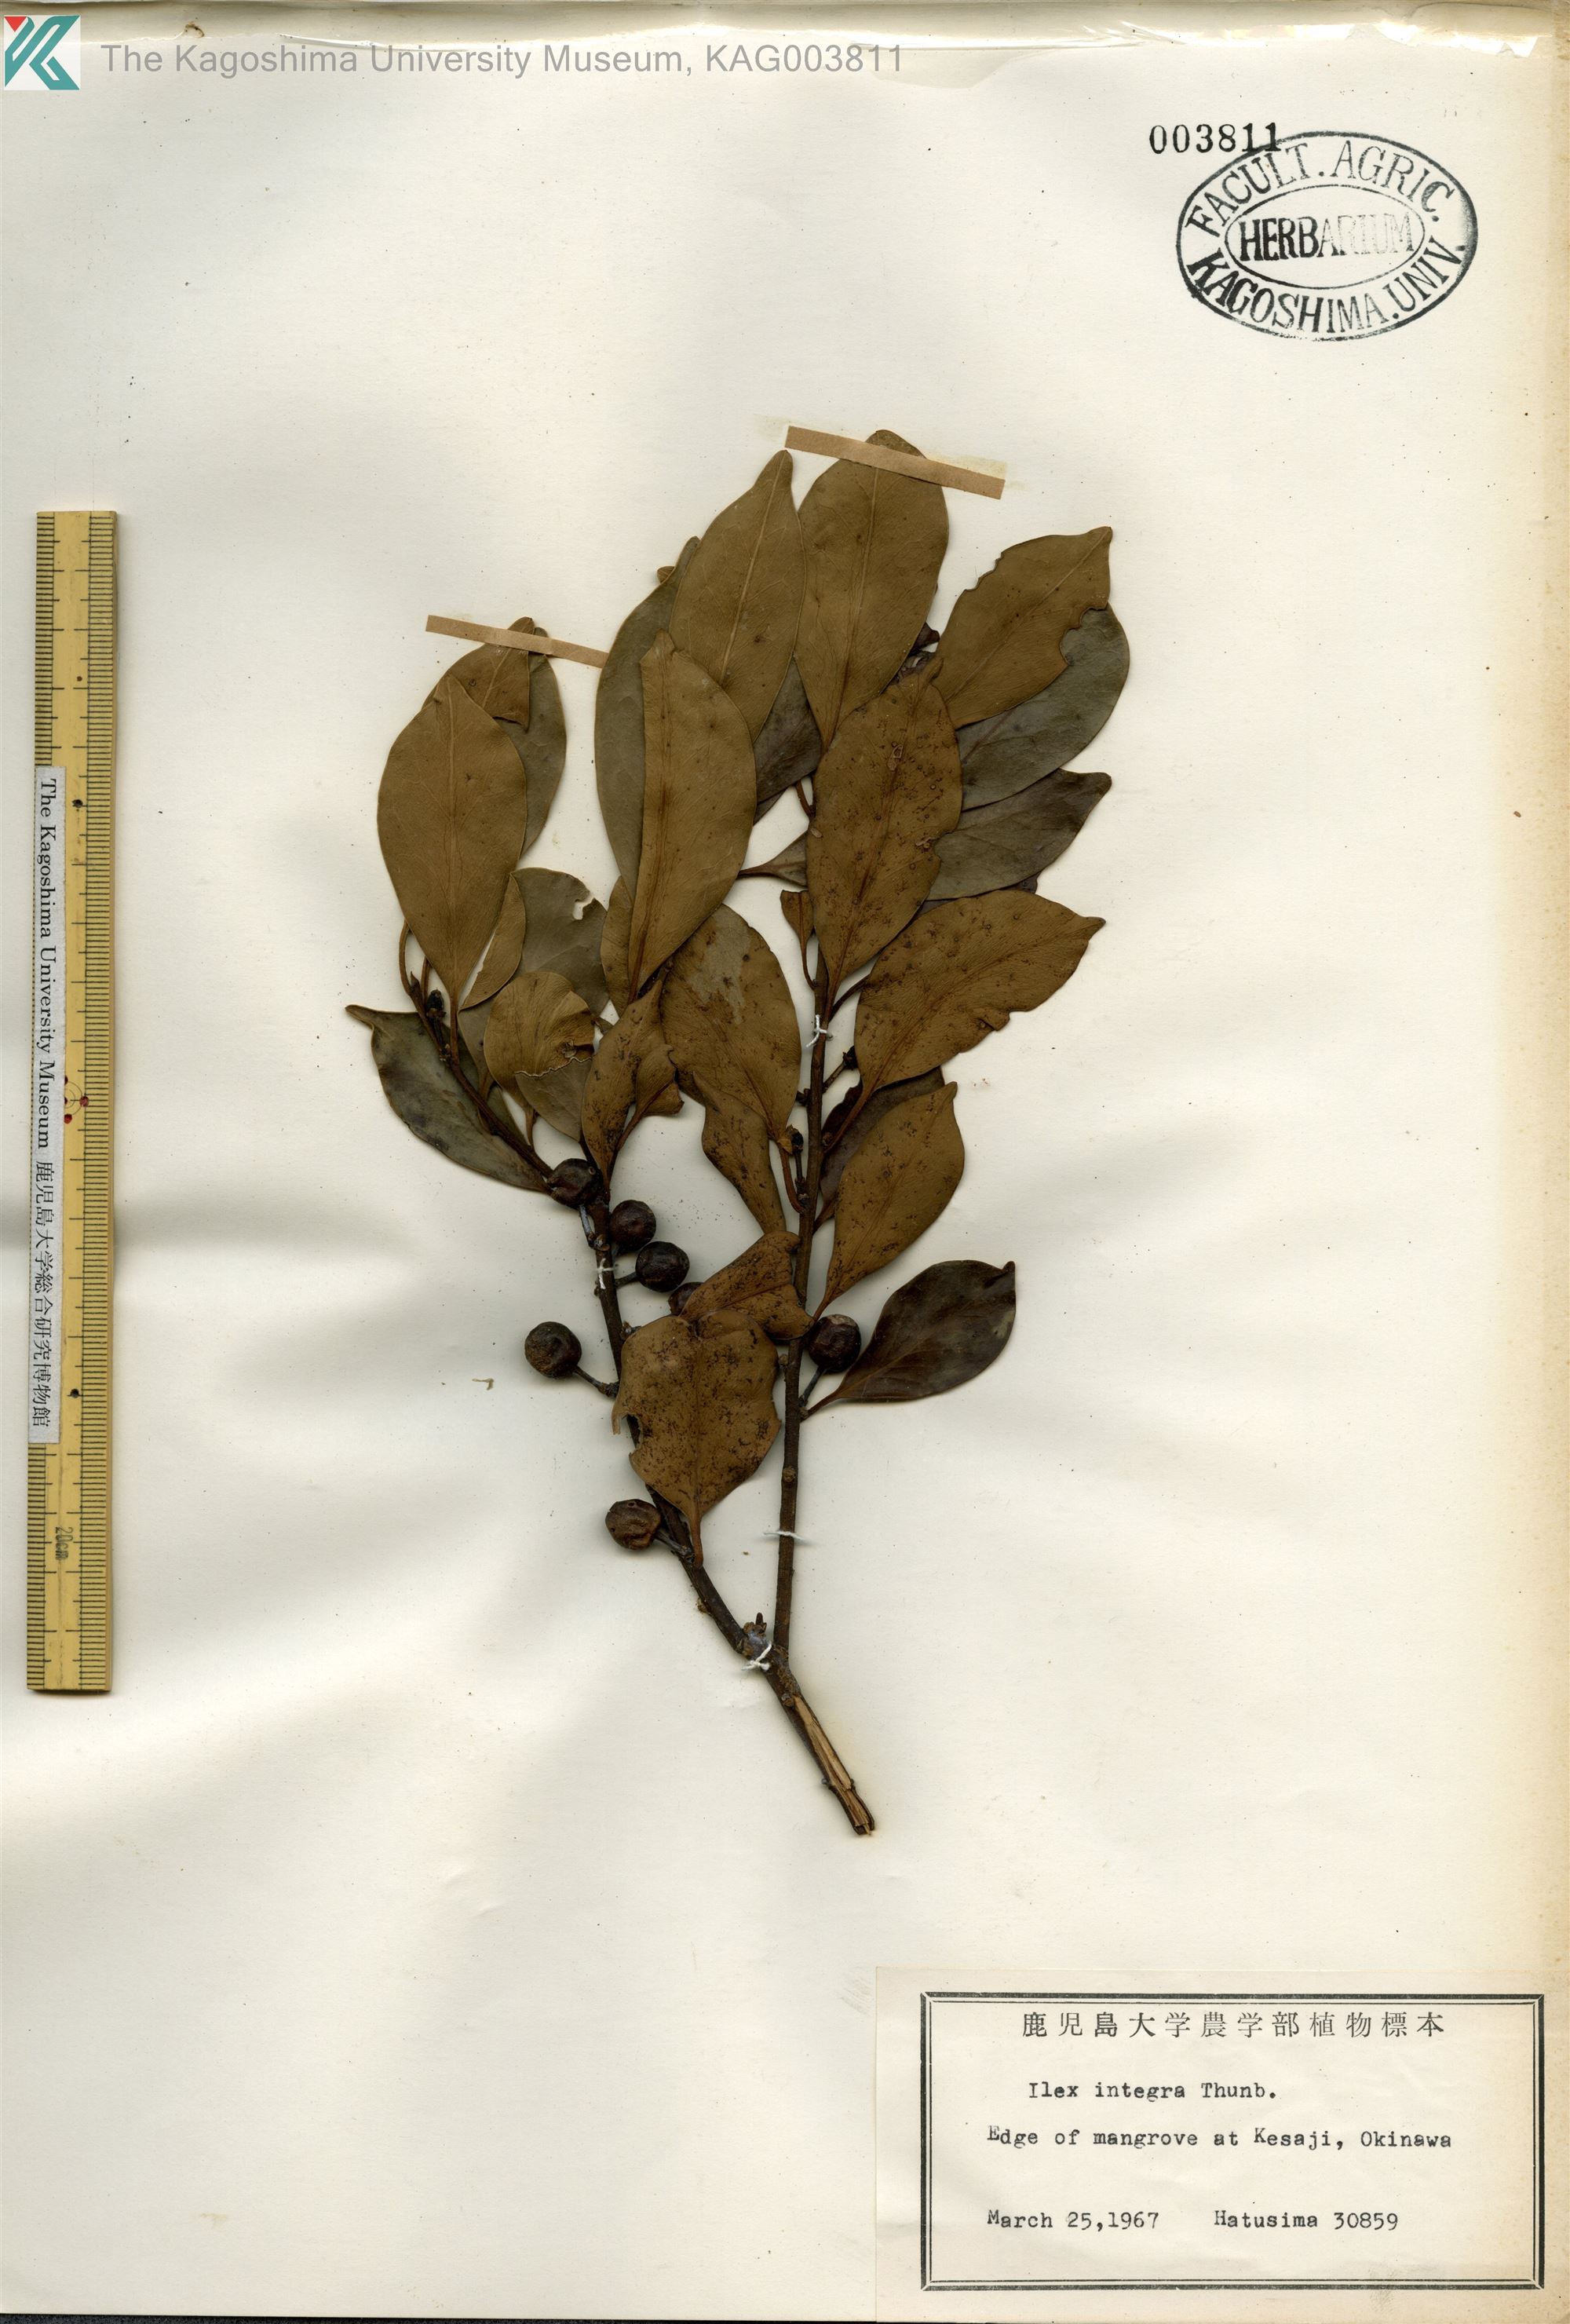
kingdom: Plantae
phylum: Tracheophyta
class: Magnoliopsida
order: Aquifoliales
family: Aquifoliaceae
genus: Ilex
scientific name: Ilex integra
